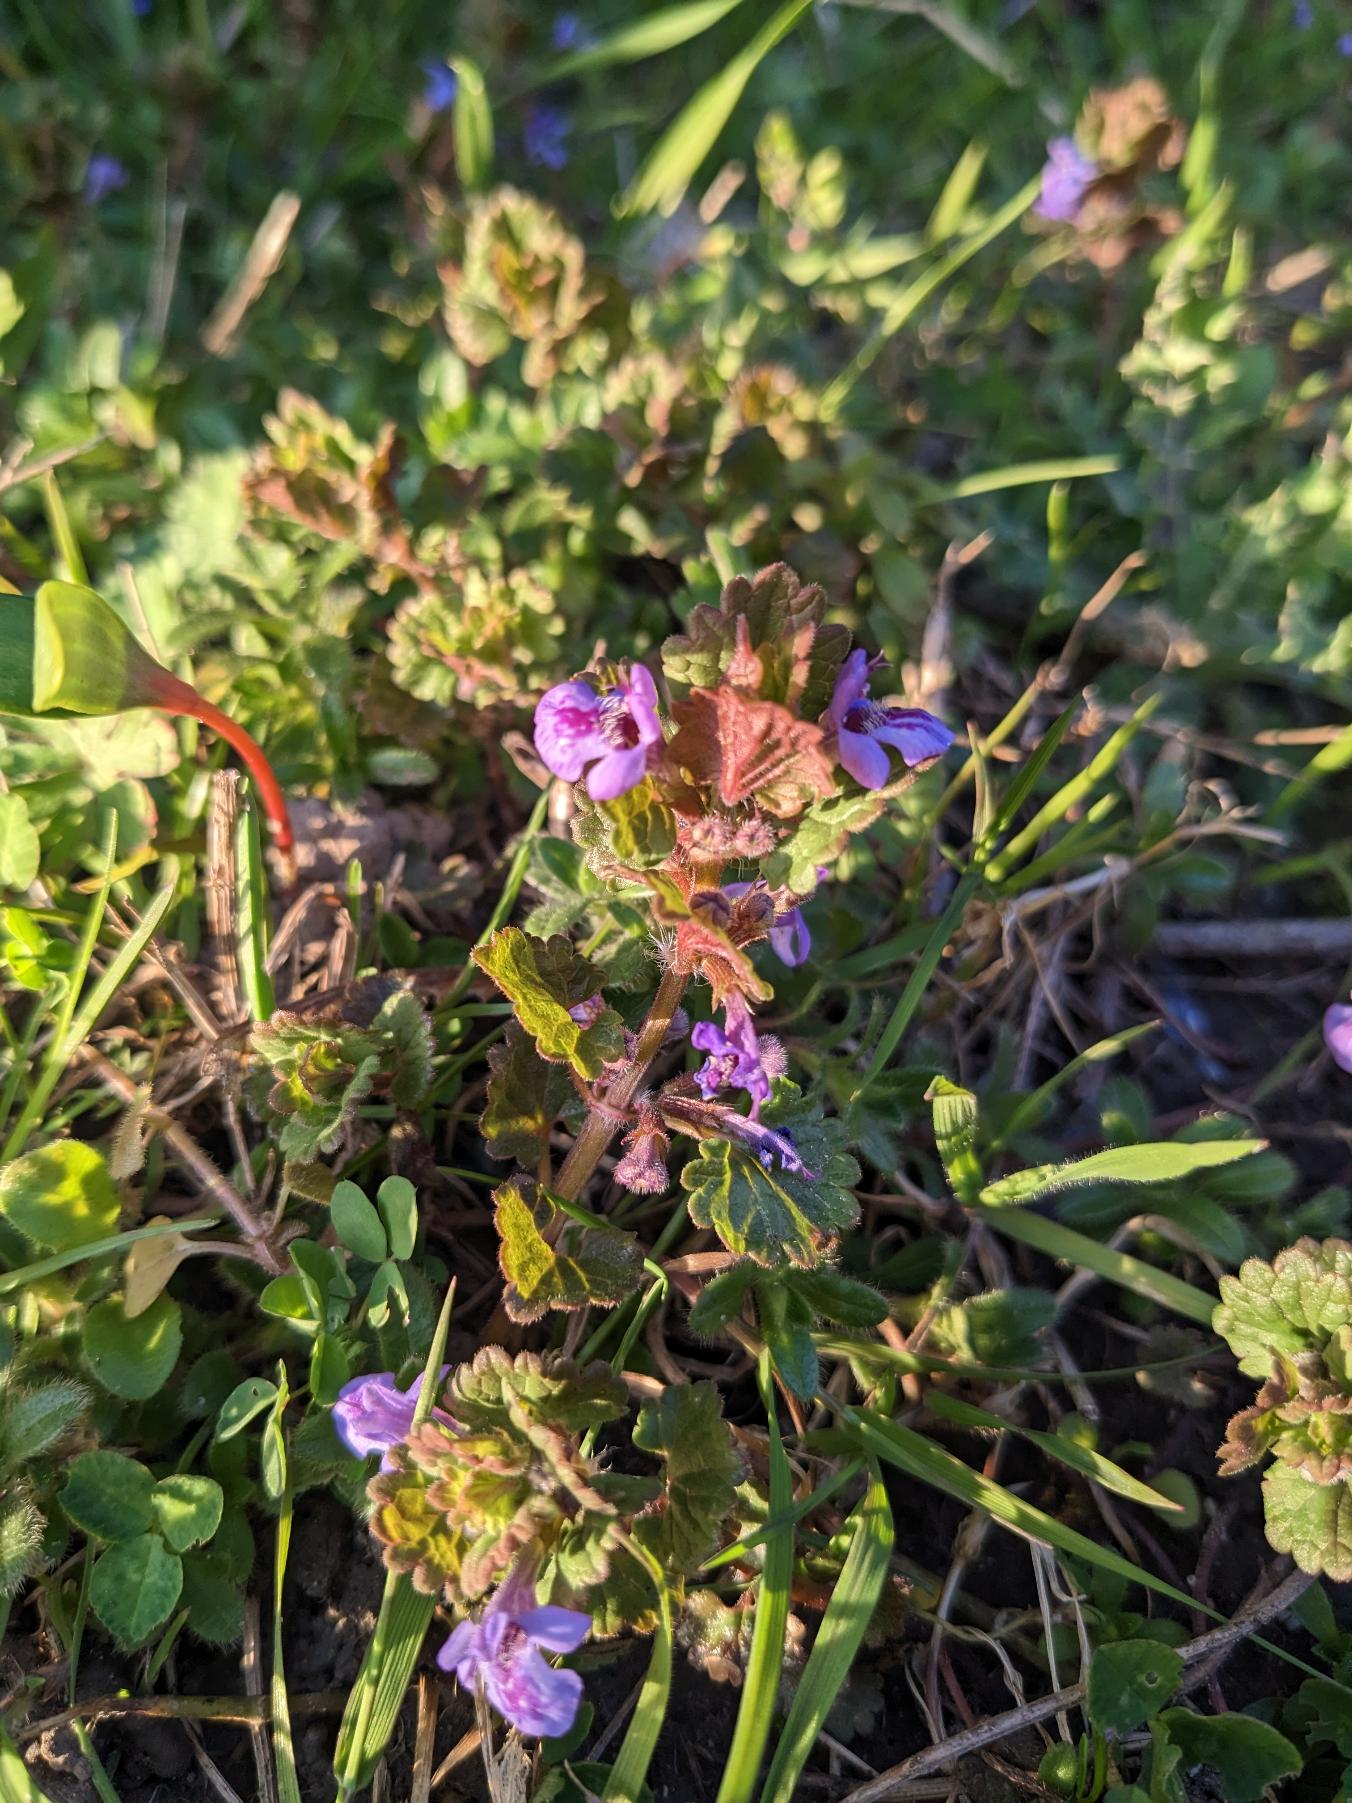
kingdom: Plantae
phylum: Tracheophyta
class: Magnoliopsida
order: Lamiales
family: Lamiaceae
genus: Glechoma
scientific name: Glechoma hederacea
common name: Korsknap
